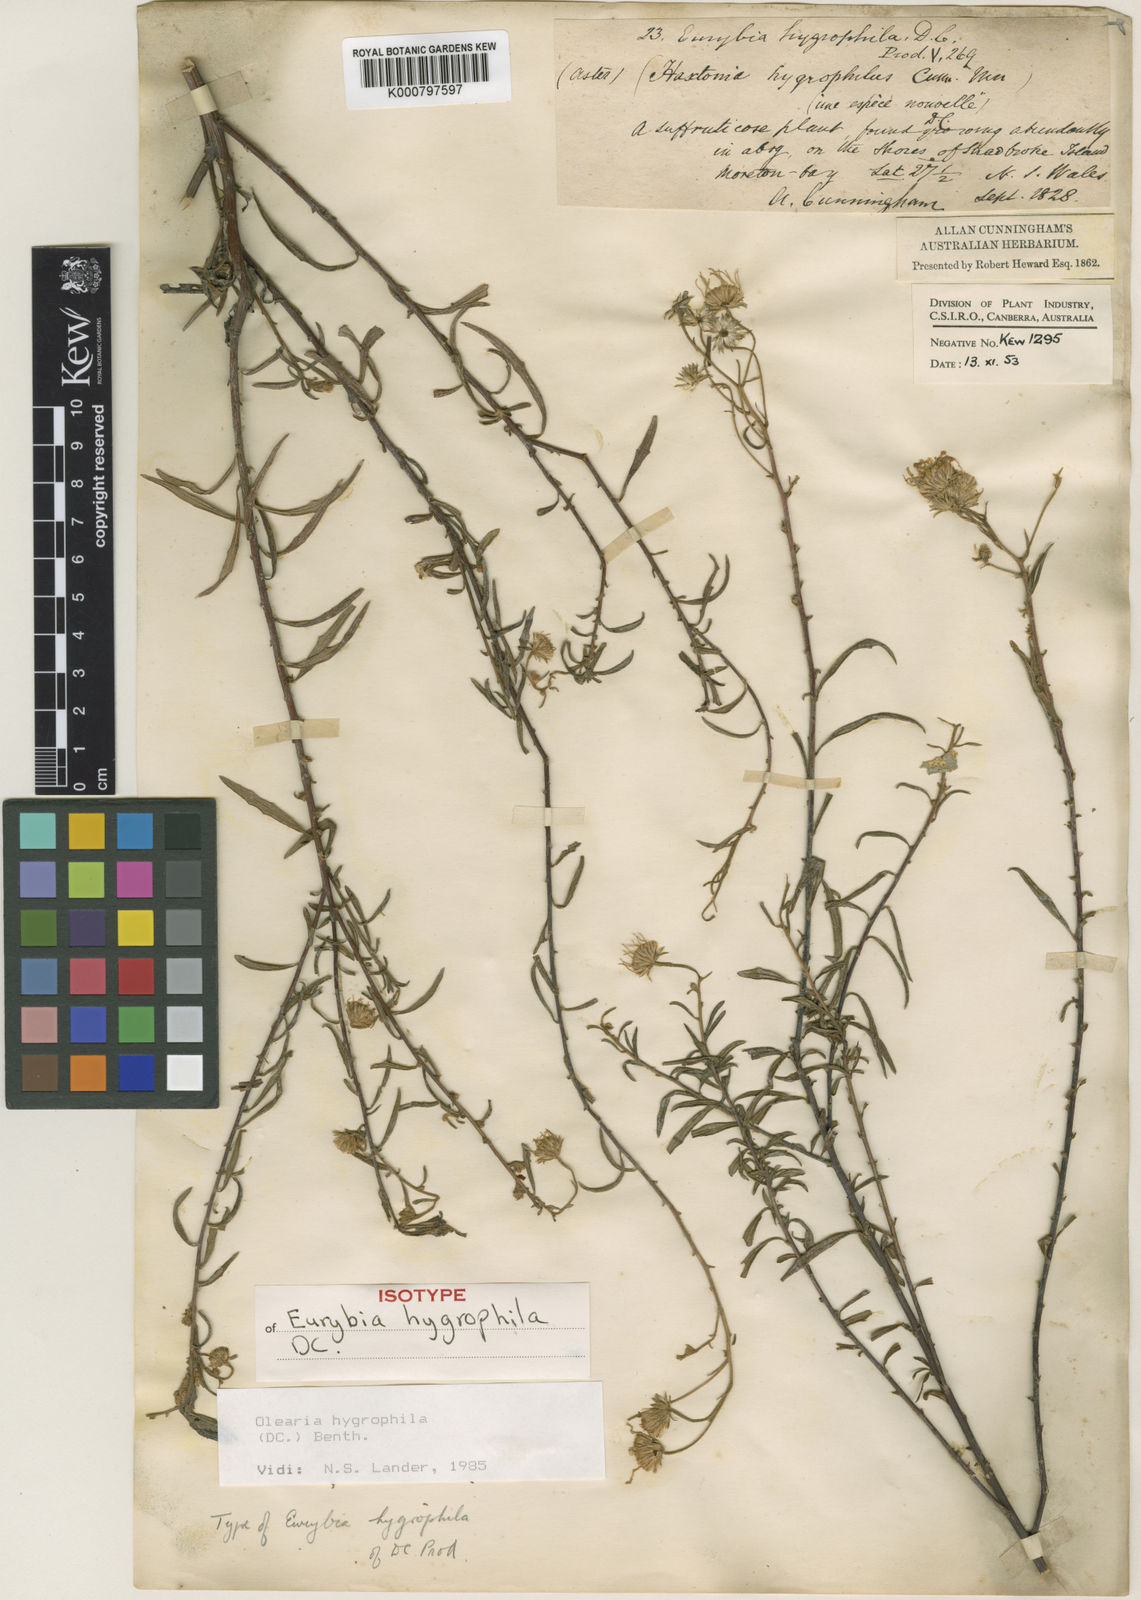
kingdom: Plantae
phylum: Tracheophyta
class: Magnoliopsida
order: Asterales
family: Asteraceae
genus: Olearia
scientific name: Olearia hygrophila
